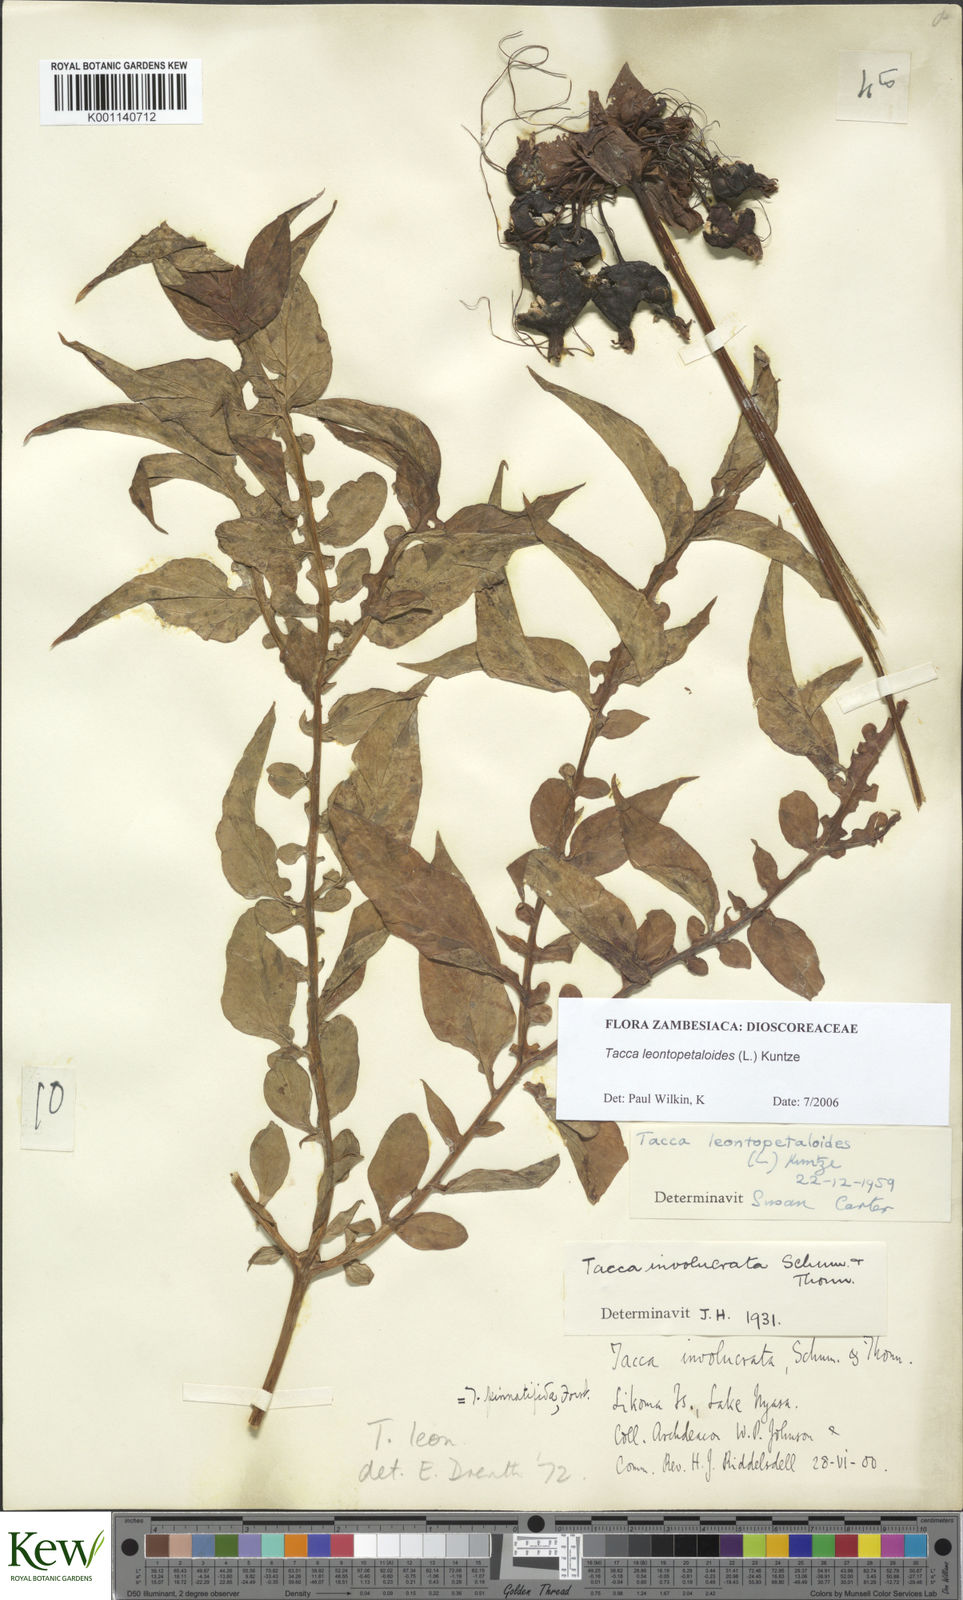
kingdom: Plantae
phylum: Tracheophyta
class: Liliopsida
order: Dioscoreales
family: Dioscoreaceae
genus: Tacca
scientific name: Tacca leontopetaloides
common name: Arrowroot
